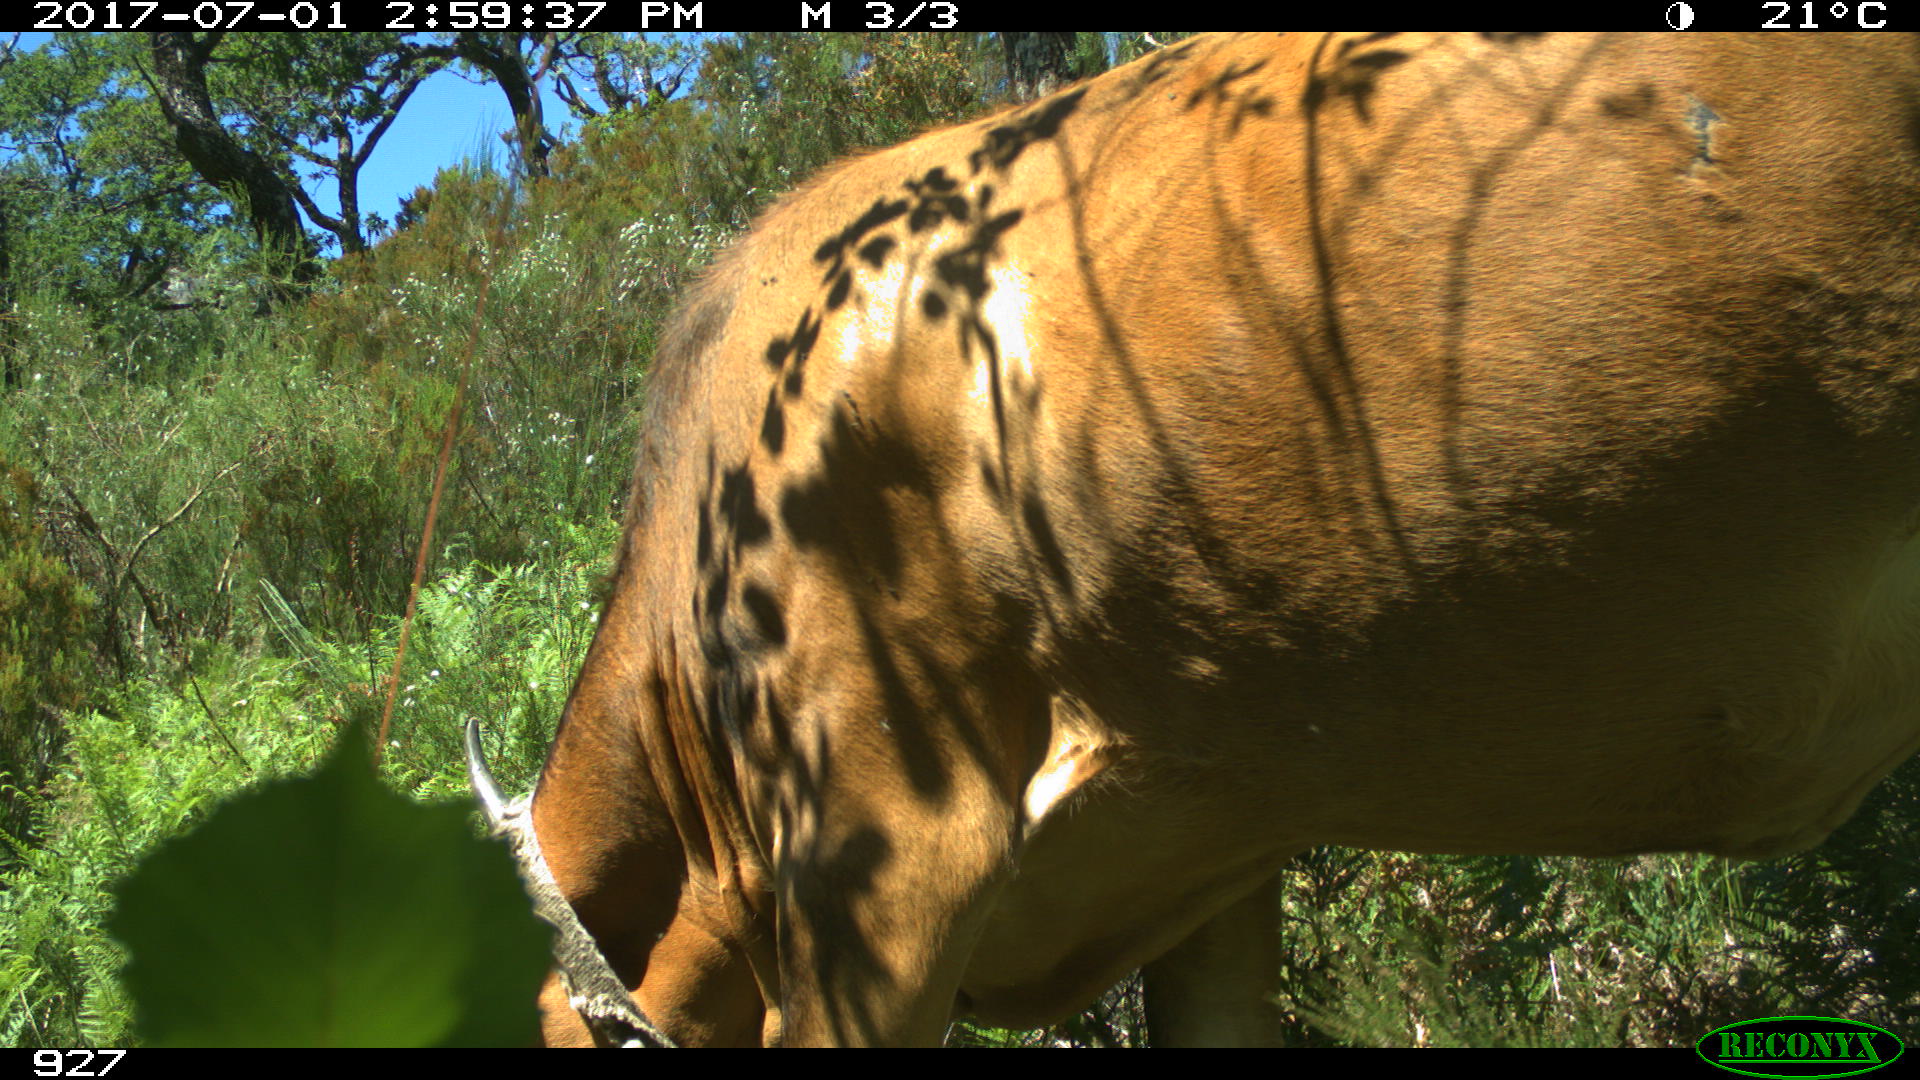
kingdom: Animalia
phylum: Chordata
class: Mammalia
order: Artiodactyla
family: Bovidae
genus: Bos
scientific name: Bos taurus
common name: Domesticated cattle
